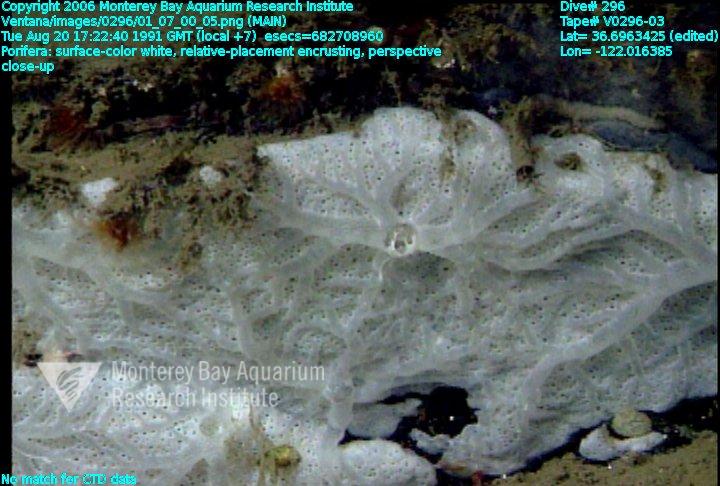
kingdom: Animalia
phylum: Porifera
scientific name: Porifera
